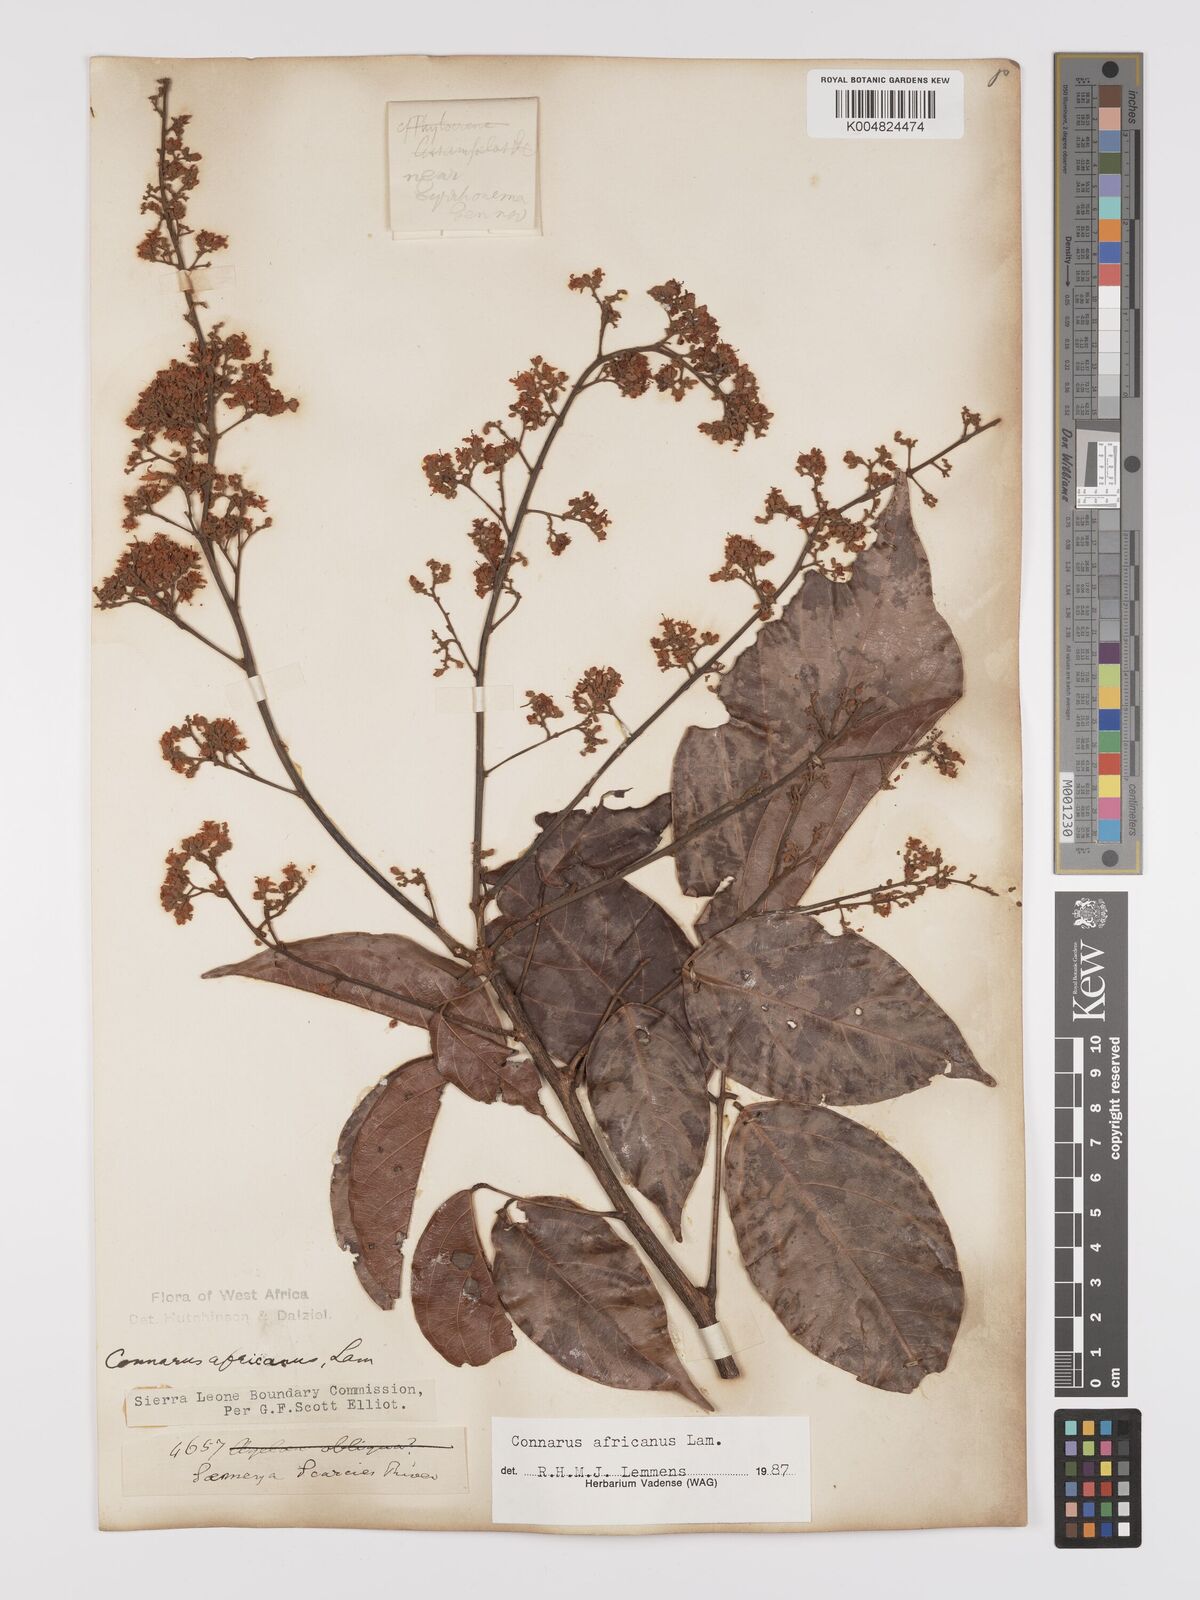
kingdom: Plantae
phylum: Tracheophyta
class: Magnoliopsida
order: Oxalidales
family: Connaraceae
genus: Connarus
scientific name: Connarus africanus
